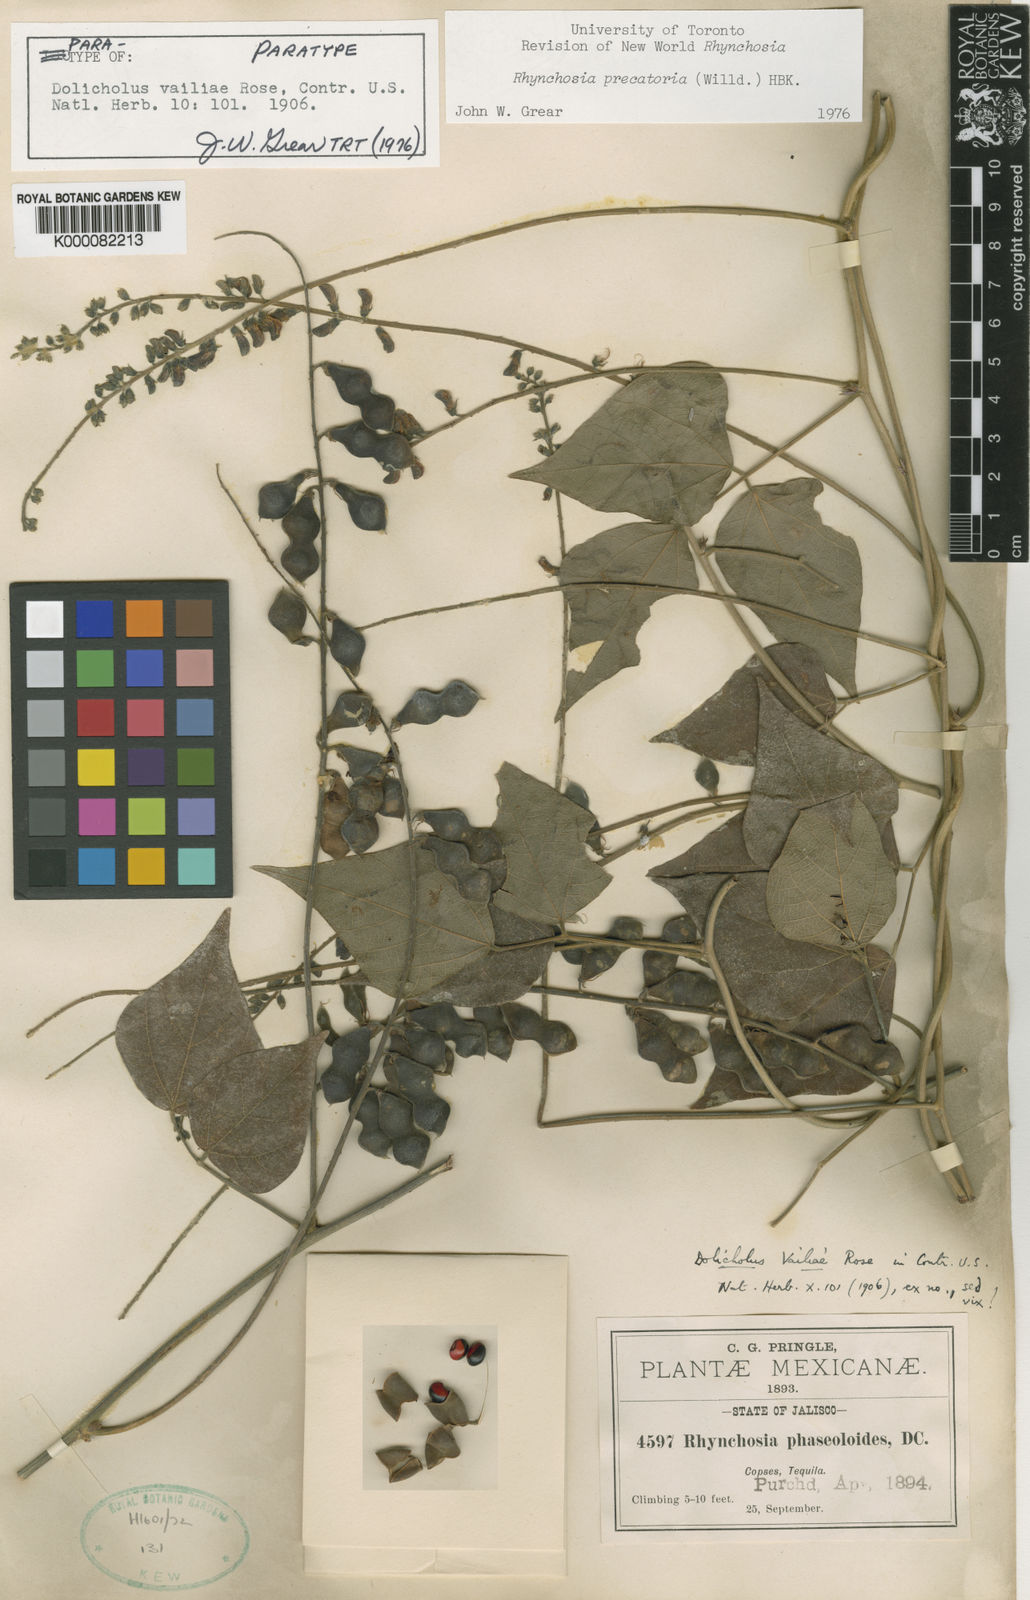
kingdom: Plantae
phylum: Tracheophyta
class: Magnoliopsida
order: Fabales
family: Fabaceae
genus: Dolichos
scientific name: Dolichos
